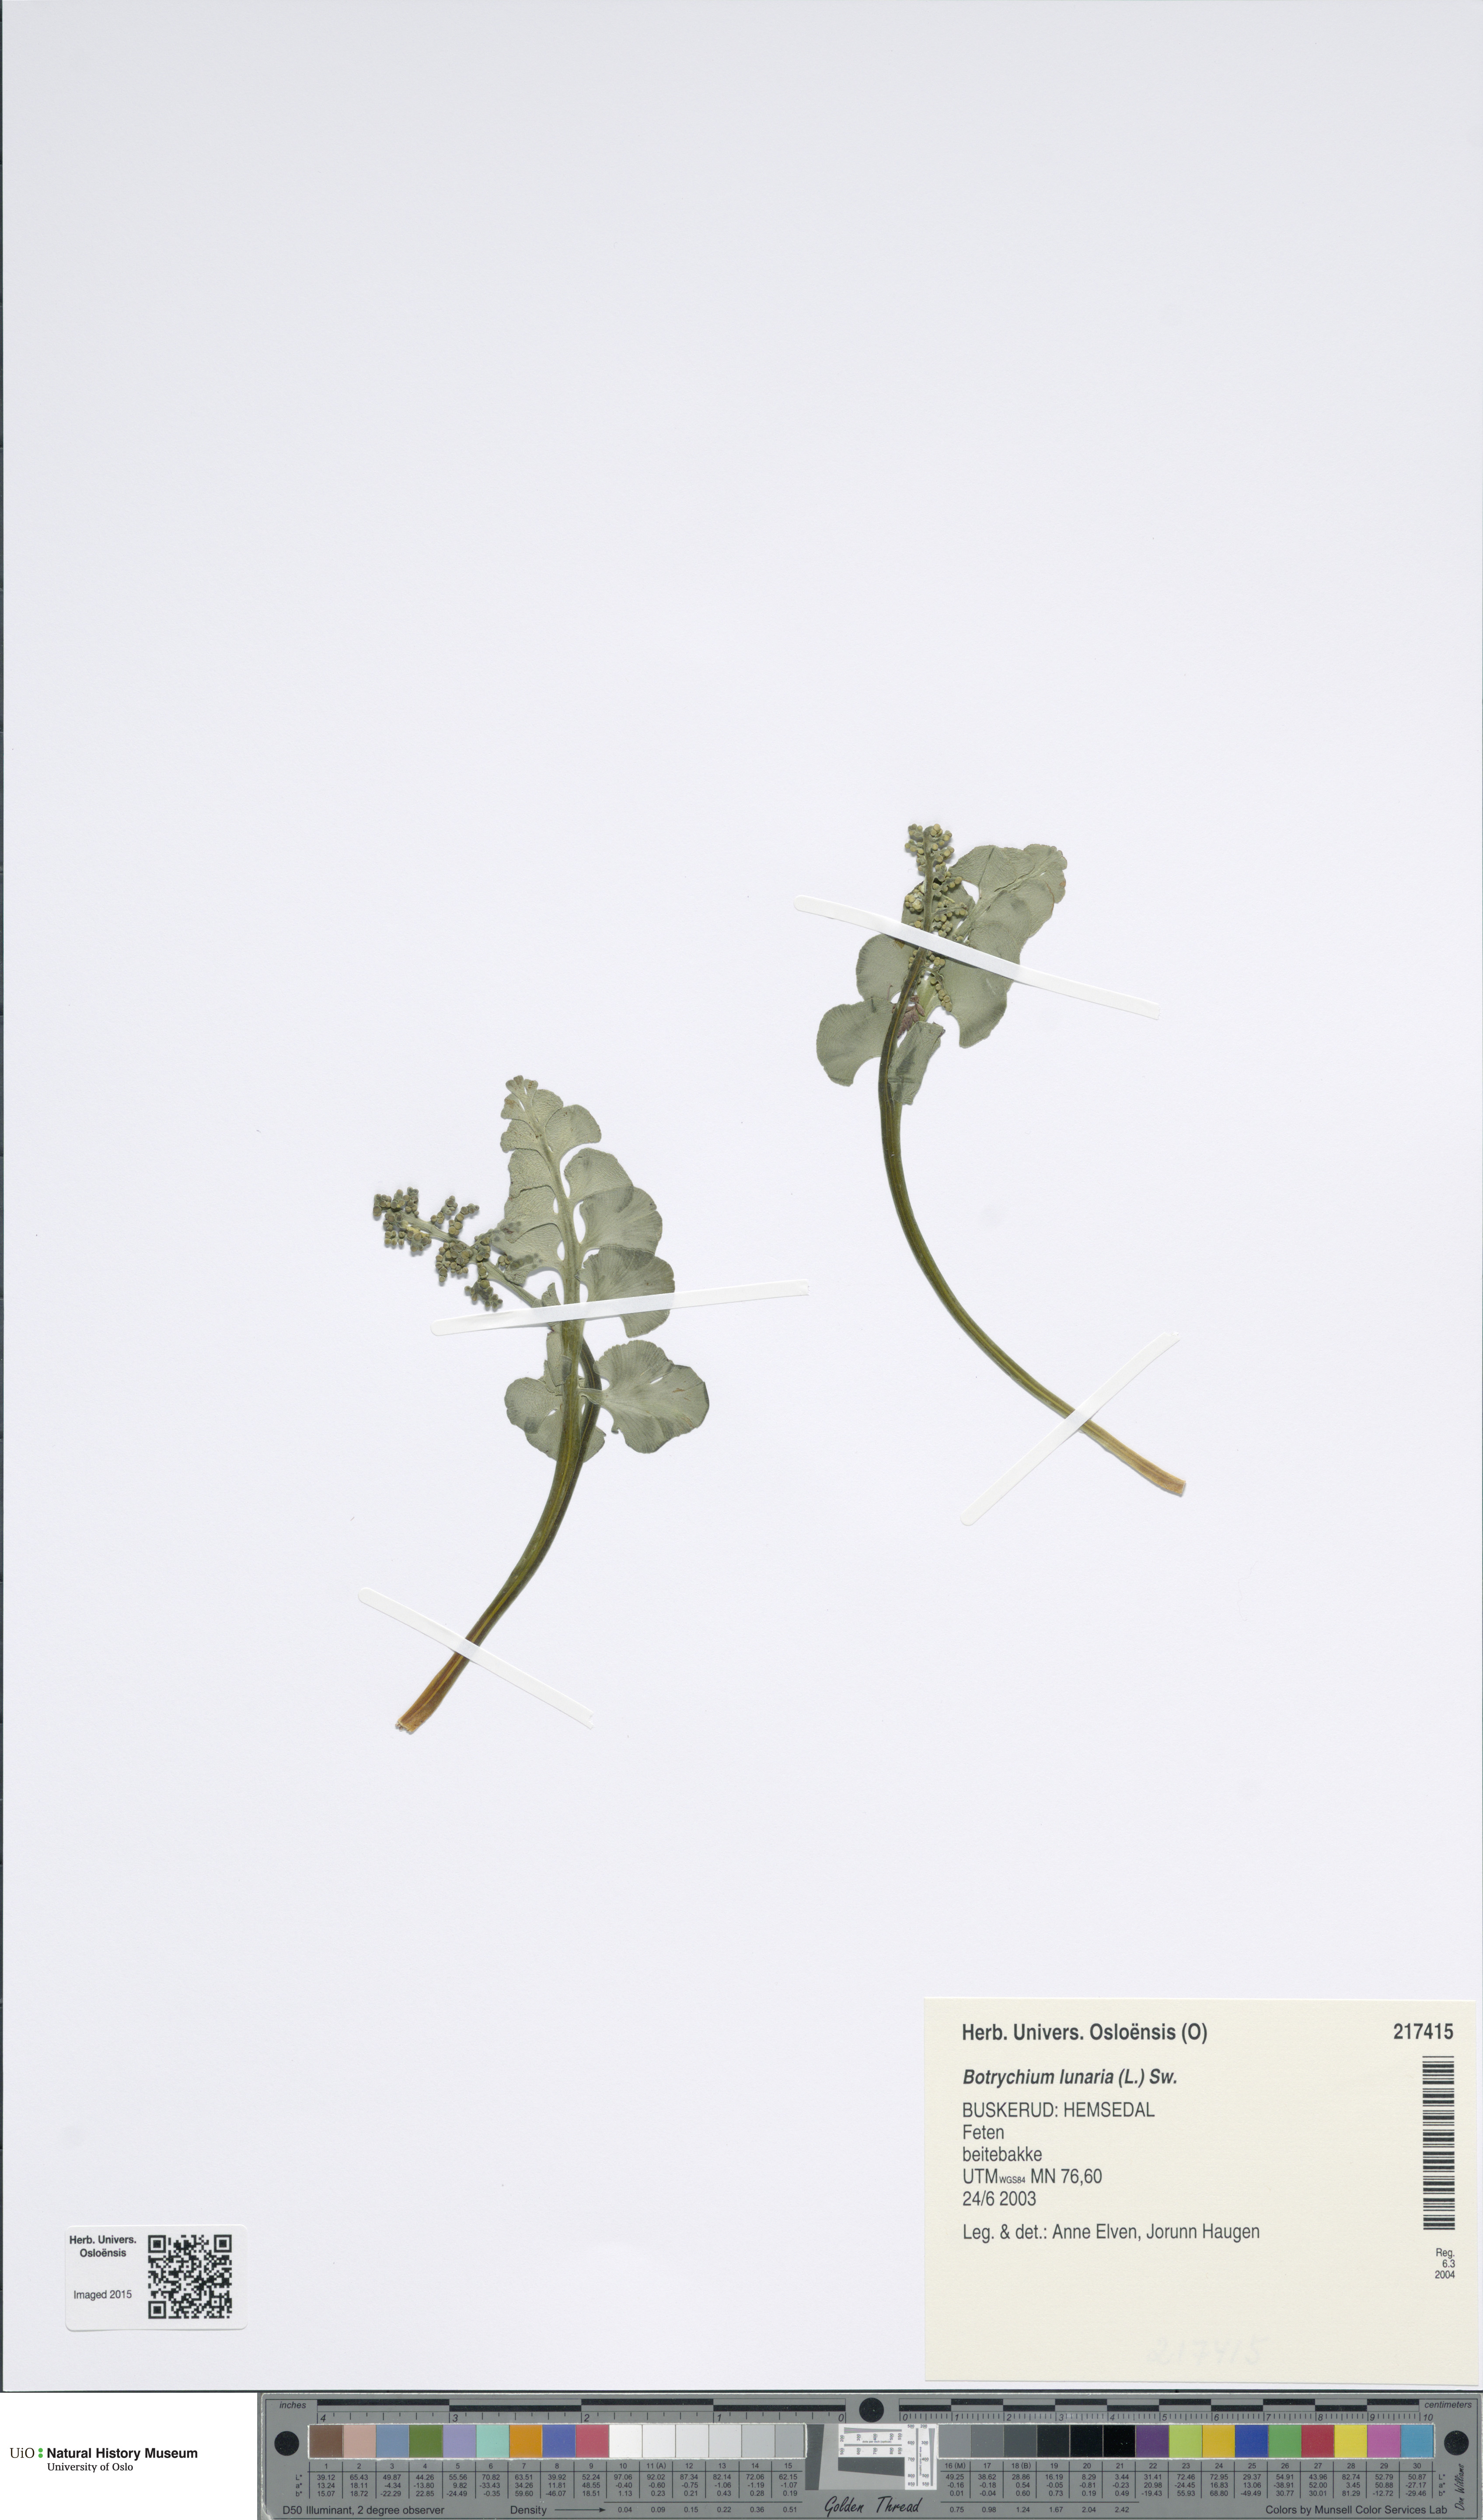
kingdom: Plantae
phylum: Tracheophyta
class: Polypodiopsida
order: Ophioglossales
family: Ophioglossaceae
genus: Botrychium
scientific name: Botrychium lunaria
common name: Moonwort
